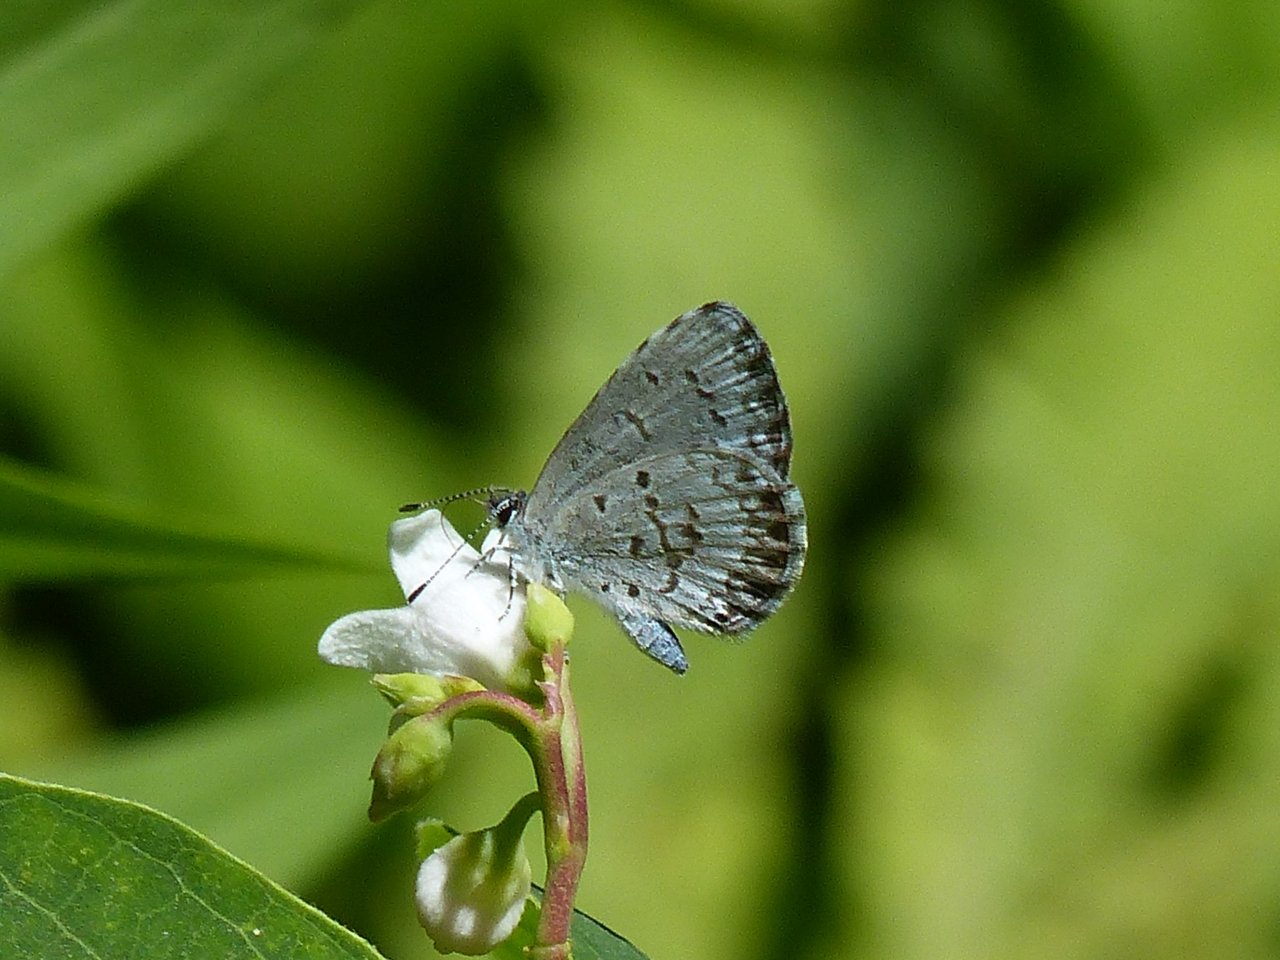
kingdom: Animalia
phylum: Arthropoda
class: Insecta
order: Lepidoptera
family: Lycaenidae
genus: Celastrina
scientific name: Celastrina lucia
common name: Northern Spring Azure
